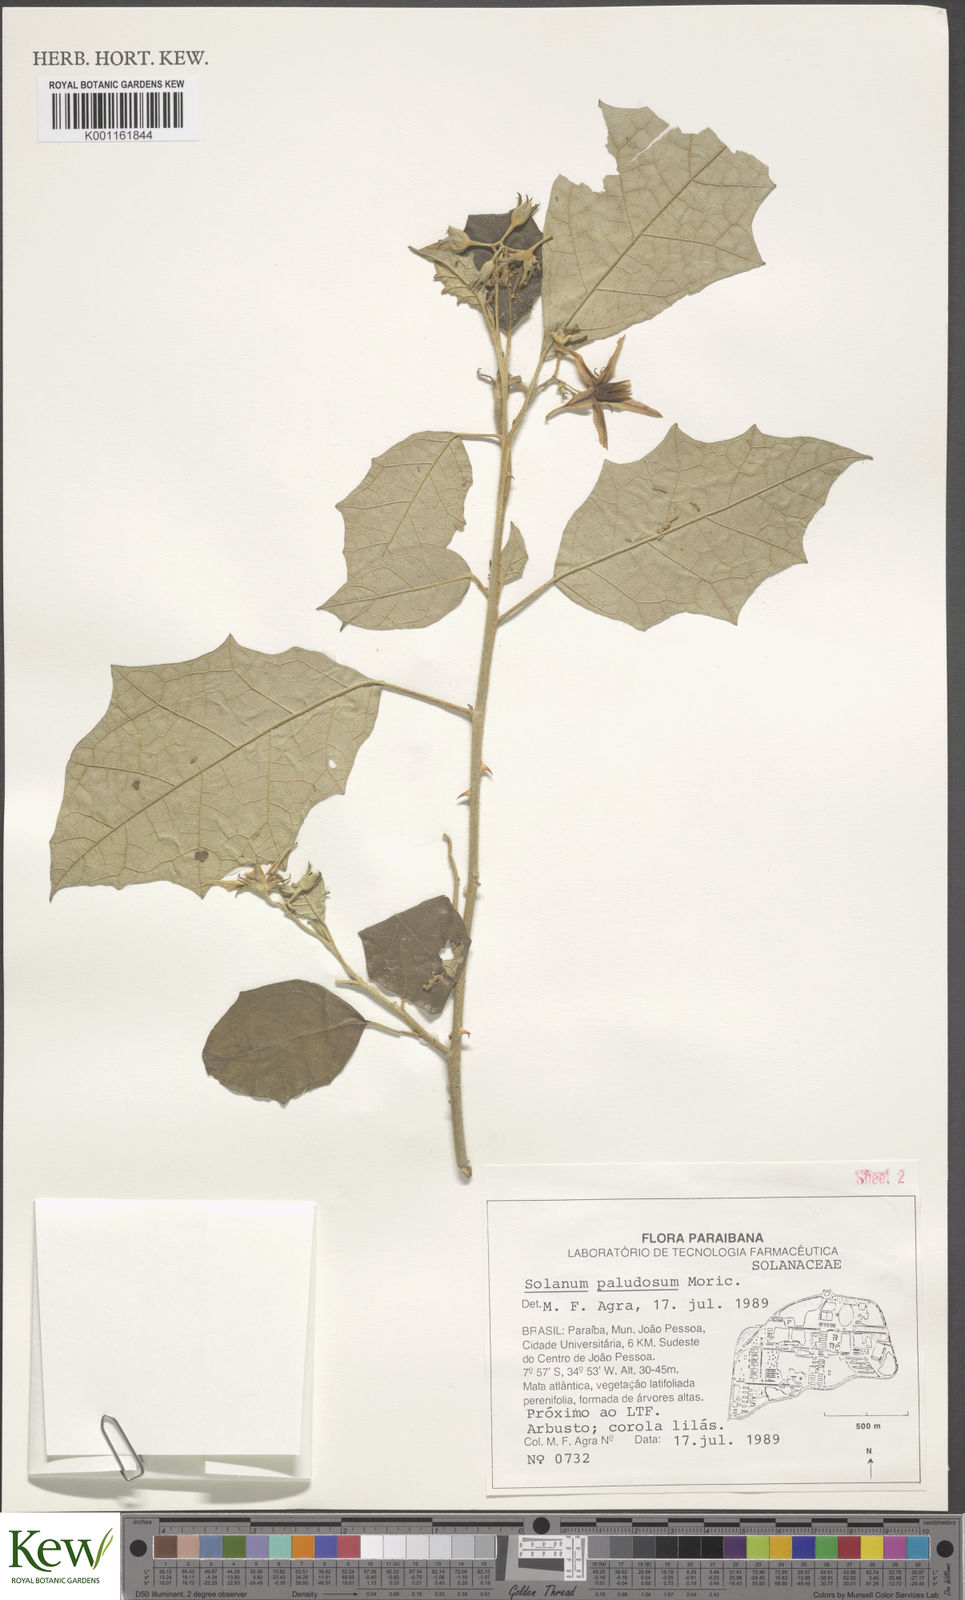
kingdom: Plantae
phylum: Tracheophyta
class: Magnoliopsida
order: Solanales
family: Solanaceae
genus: Solanum
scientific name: Solanum paludosum
